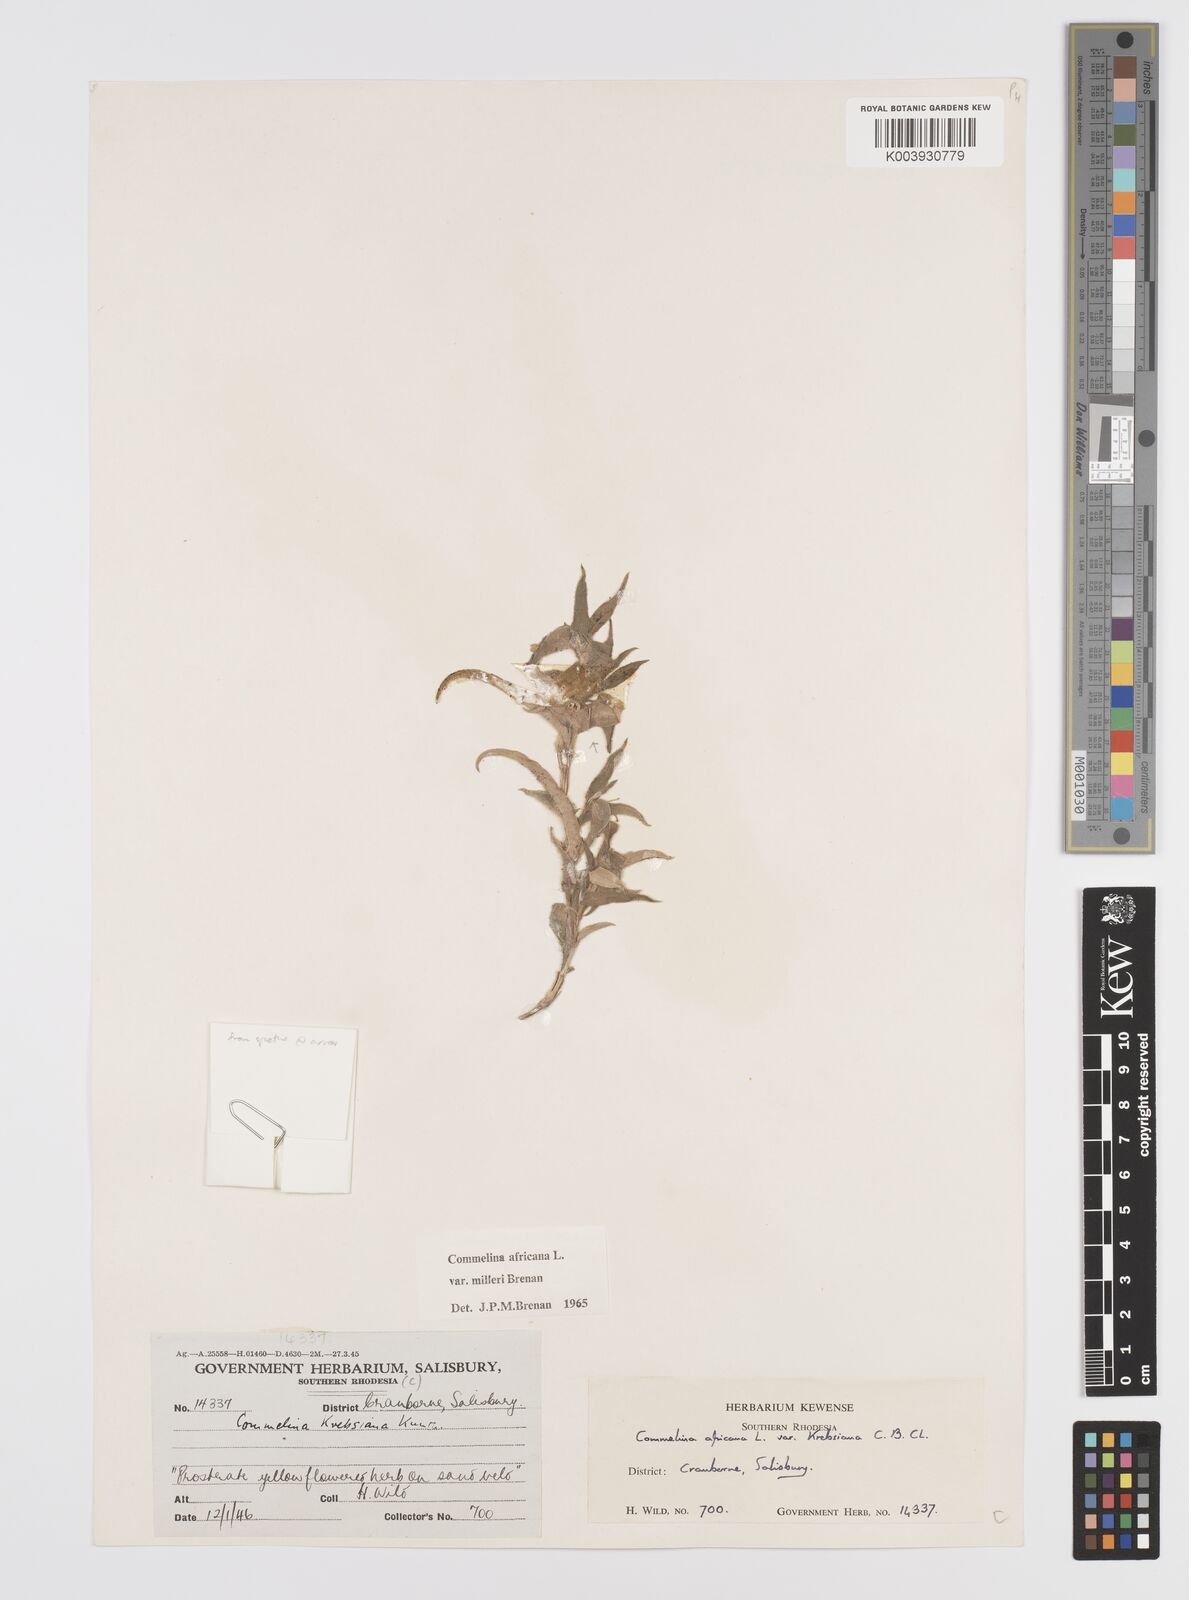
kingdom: Plantae
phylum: Tracheophyta
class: Liliopsida
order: Commelinales
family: Commelinaceae
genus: Commelina
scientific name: Commelina africana
